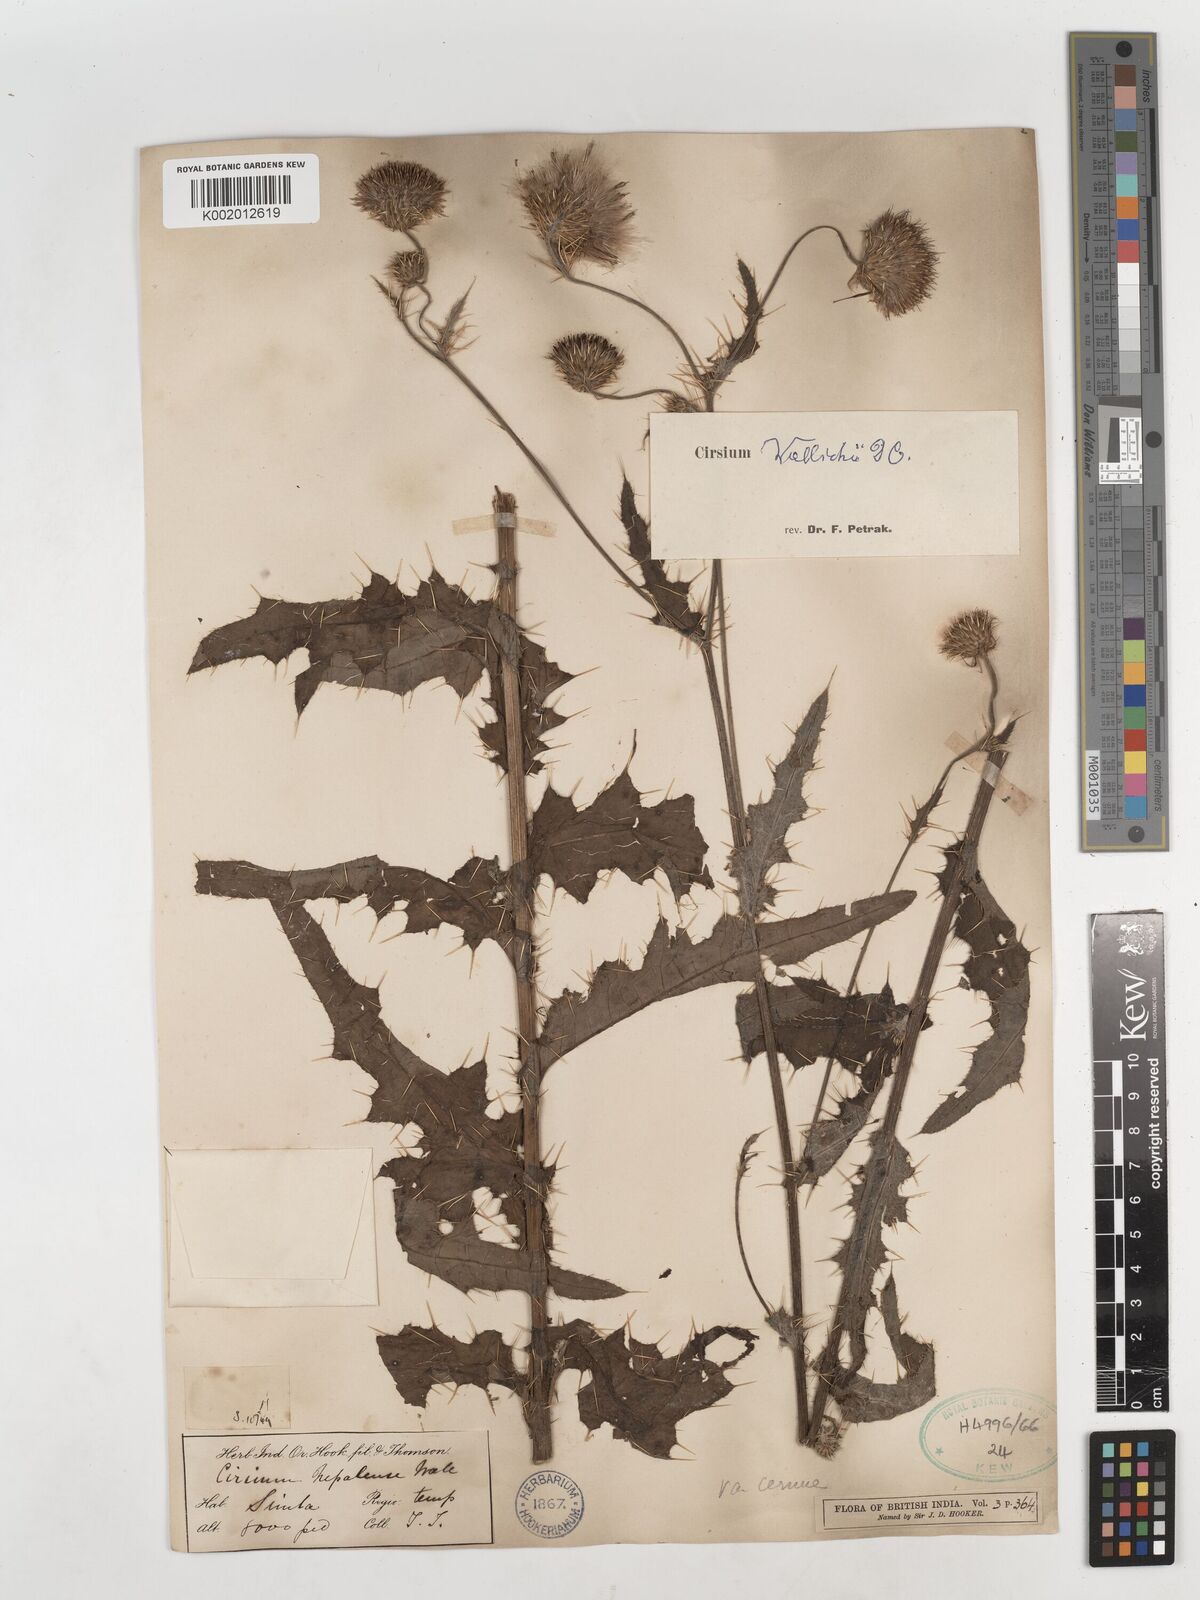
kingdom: Plantae
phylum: Tracheophyta
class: Magnoliopsida
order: Asterales
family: Asteraceae
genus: Cirsium
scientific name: Cirsium wallichii
